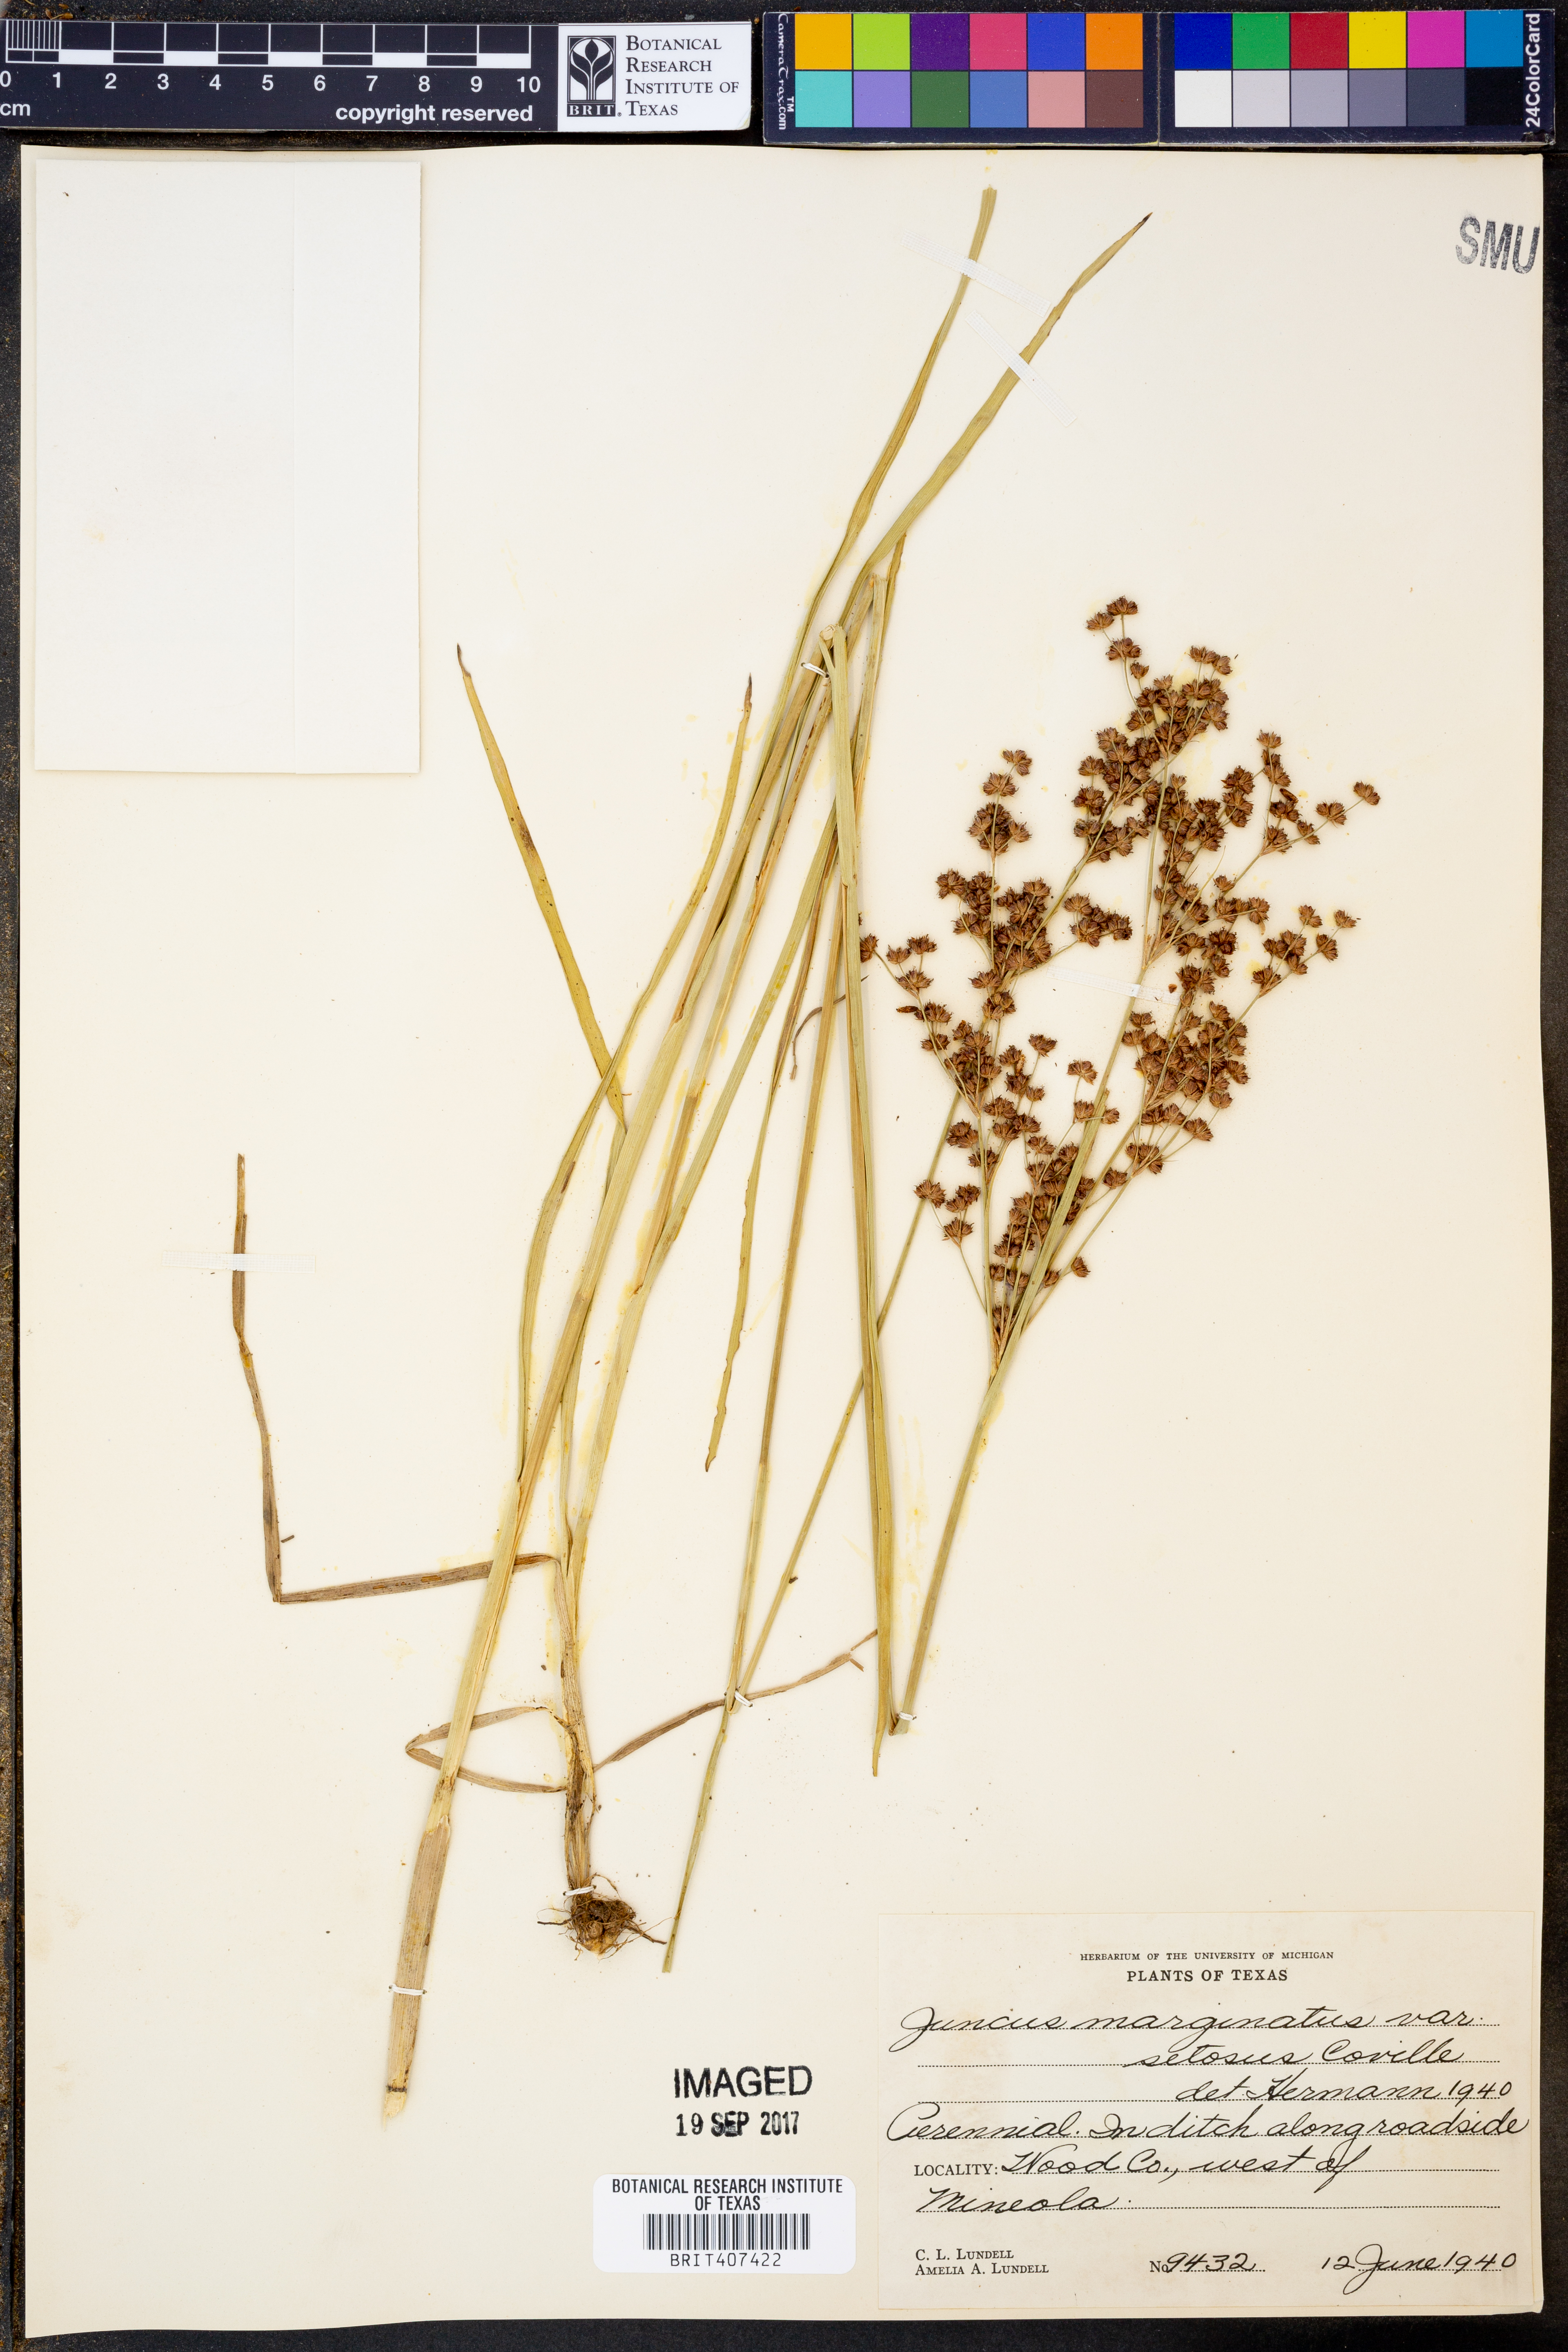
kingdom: Plantae
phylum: Tracheophyta
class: Liliopsida
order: Poales
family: Juncaceae
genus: Juncus
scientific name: Juncus marginatus
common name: Grass-leaf rush
